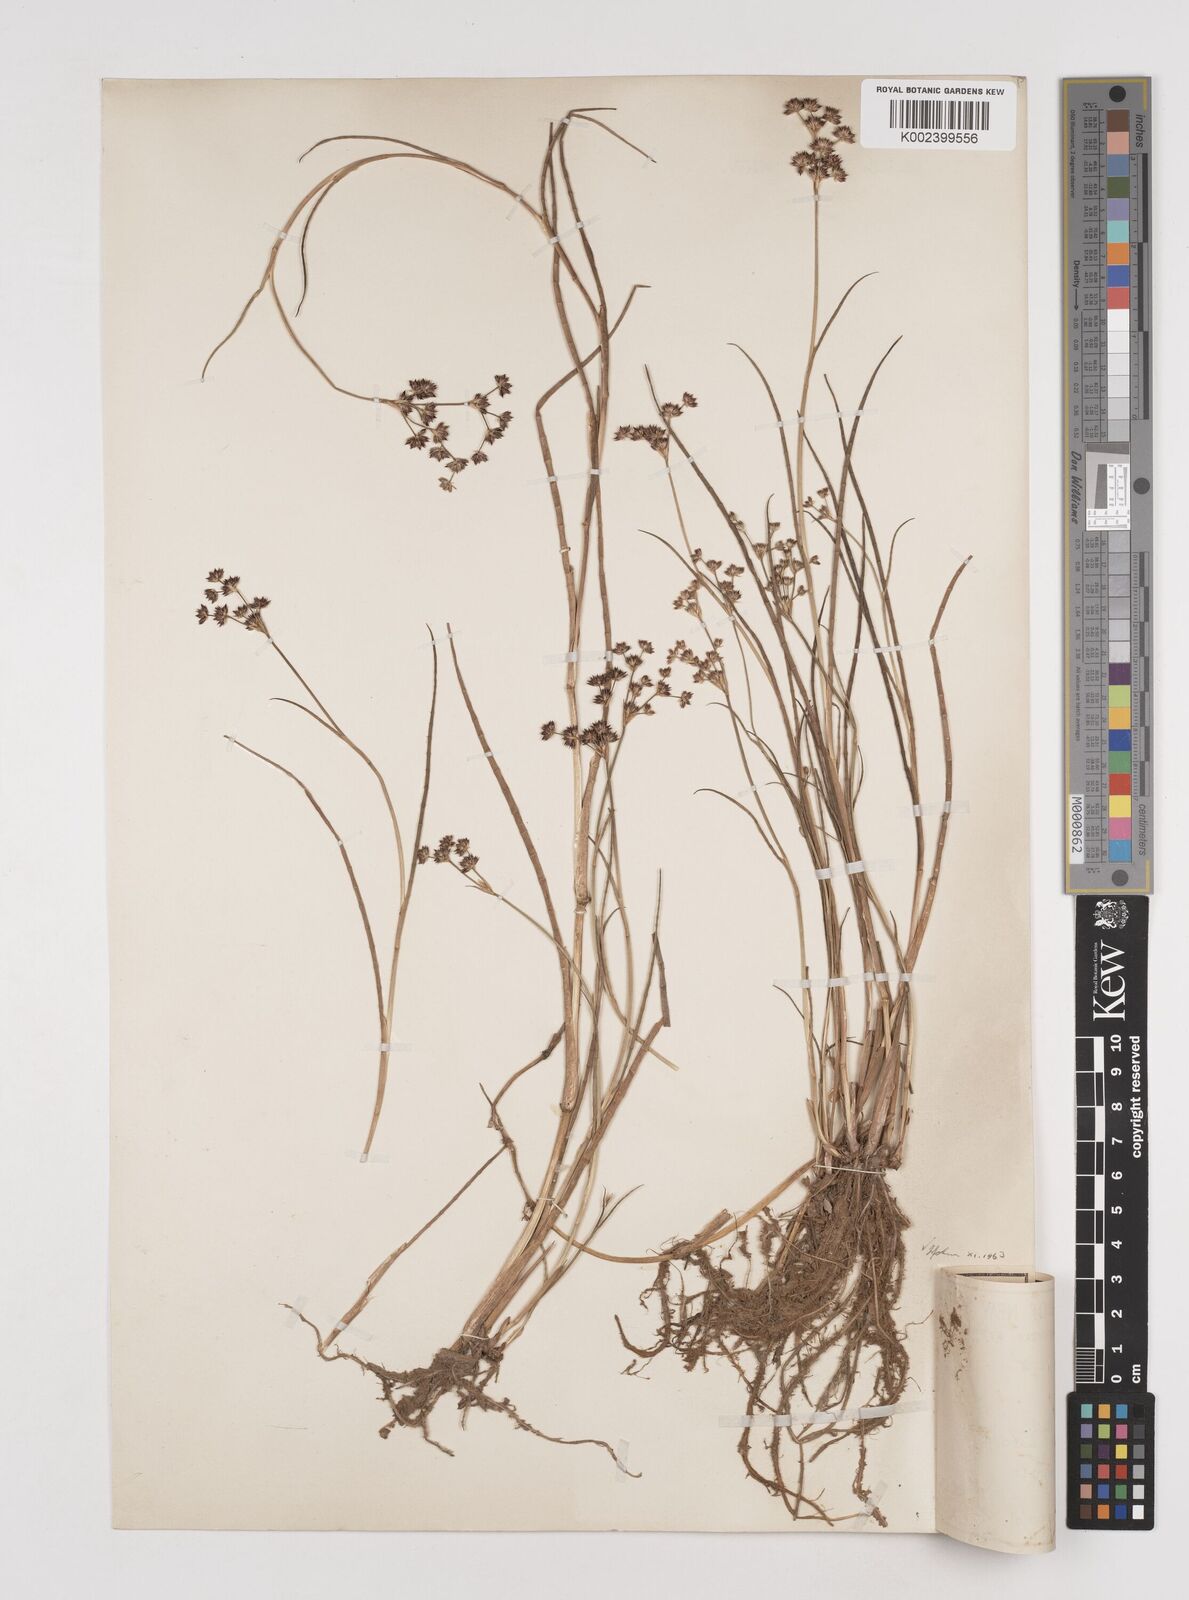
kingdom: Plantae
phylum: Tracheophyta
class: Liliopsida
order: Poales
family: Juncaceae
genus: Juncus
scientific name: Juncus articulatus
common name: Jointed rush
